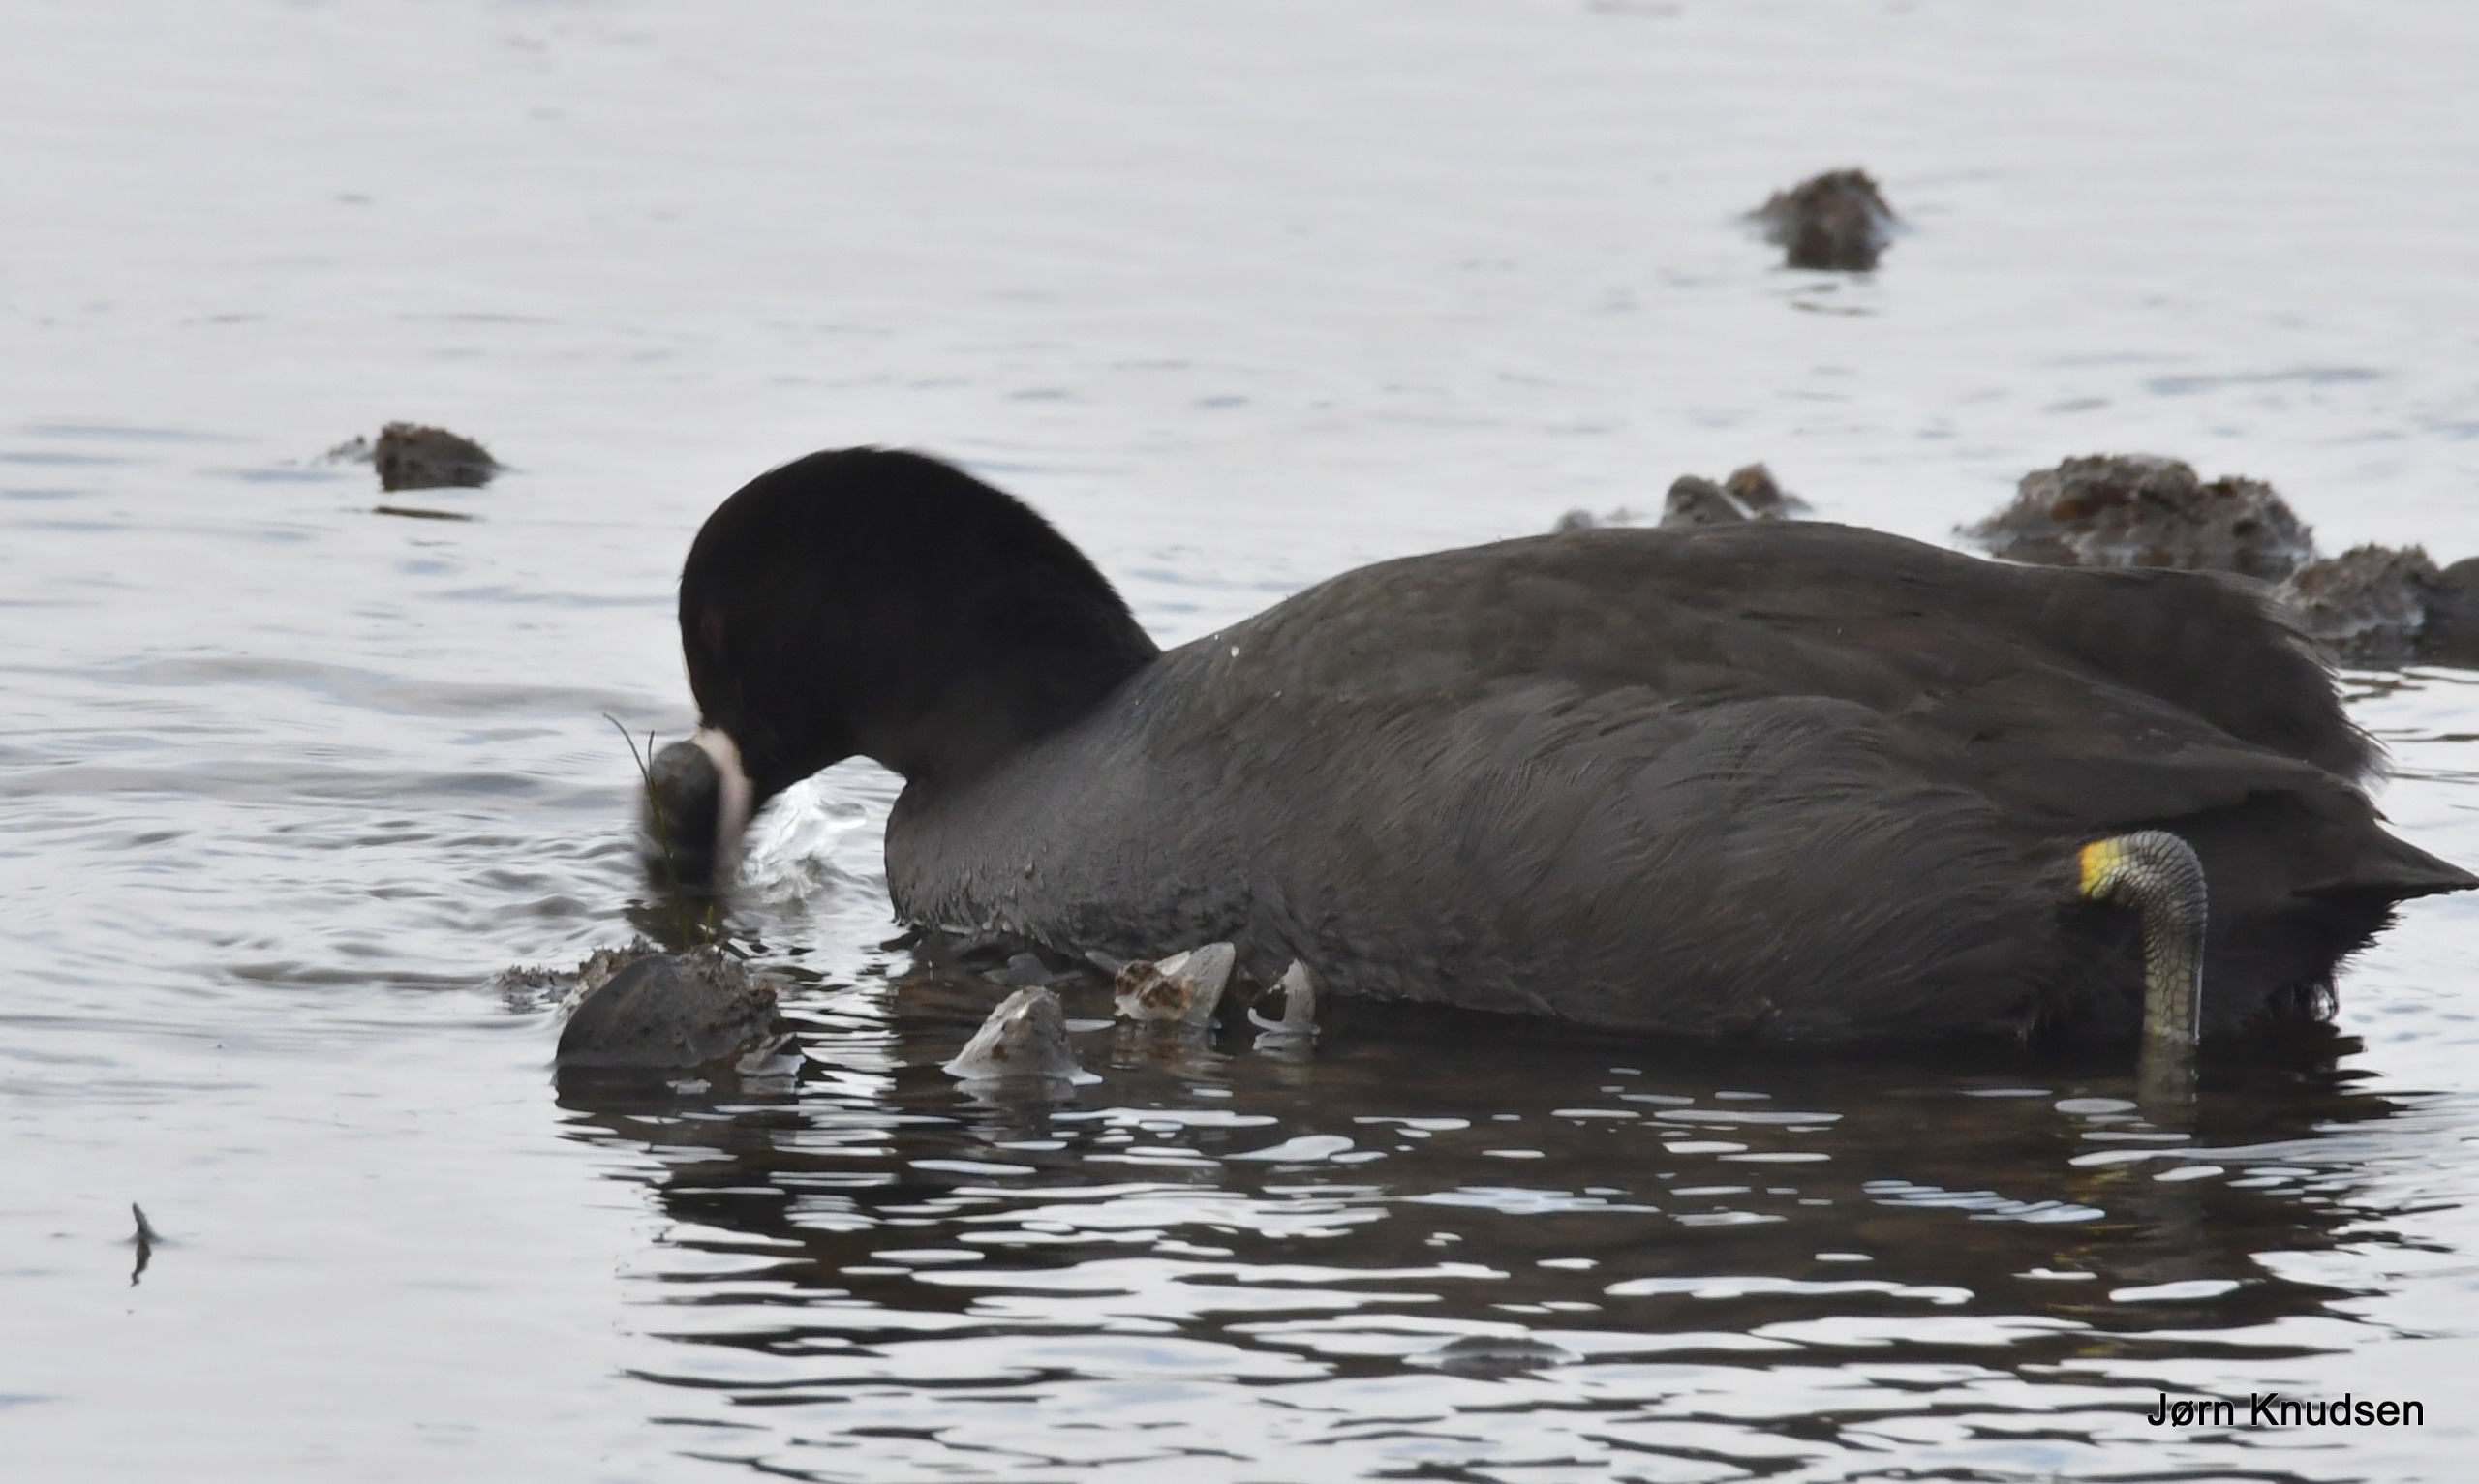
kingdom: Animalia
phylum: Chordata
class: Aves
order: Gruiformes
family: Rallidae
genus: Fulica
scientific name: Fulica atra
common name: Blishøne
